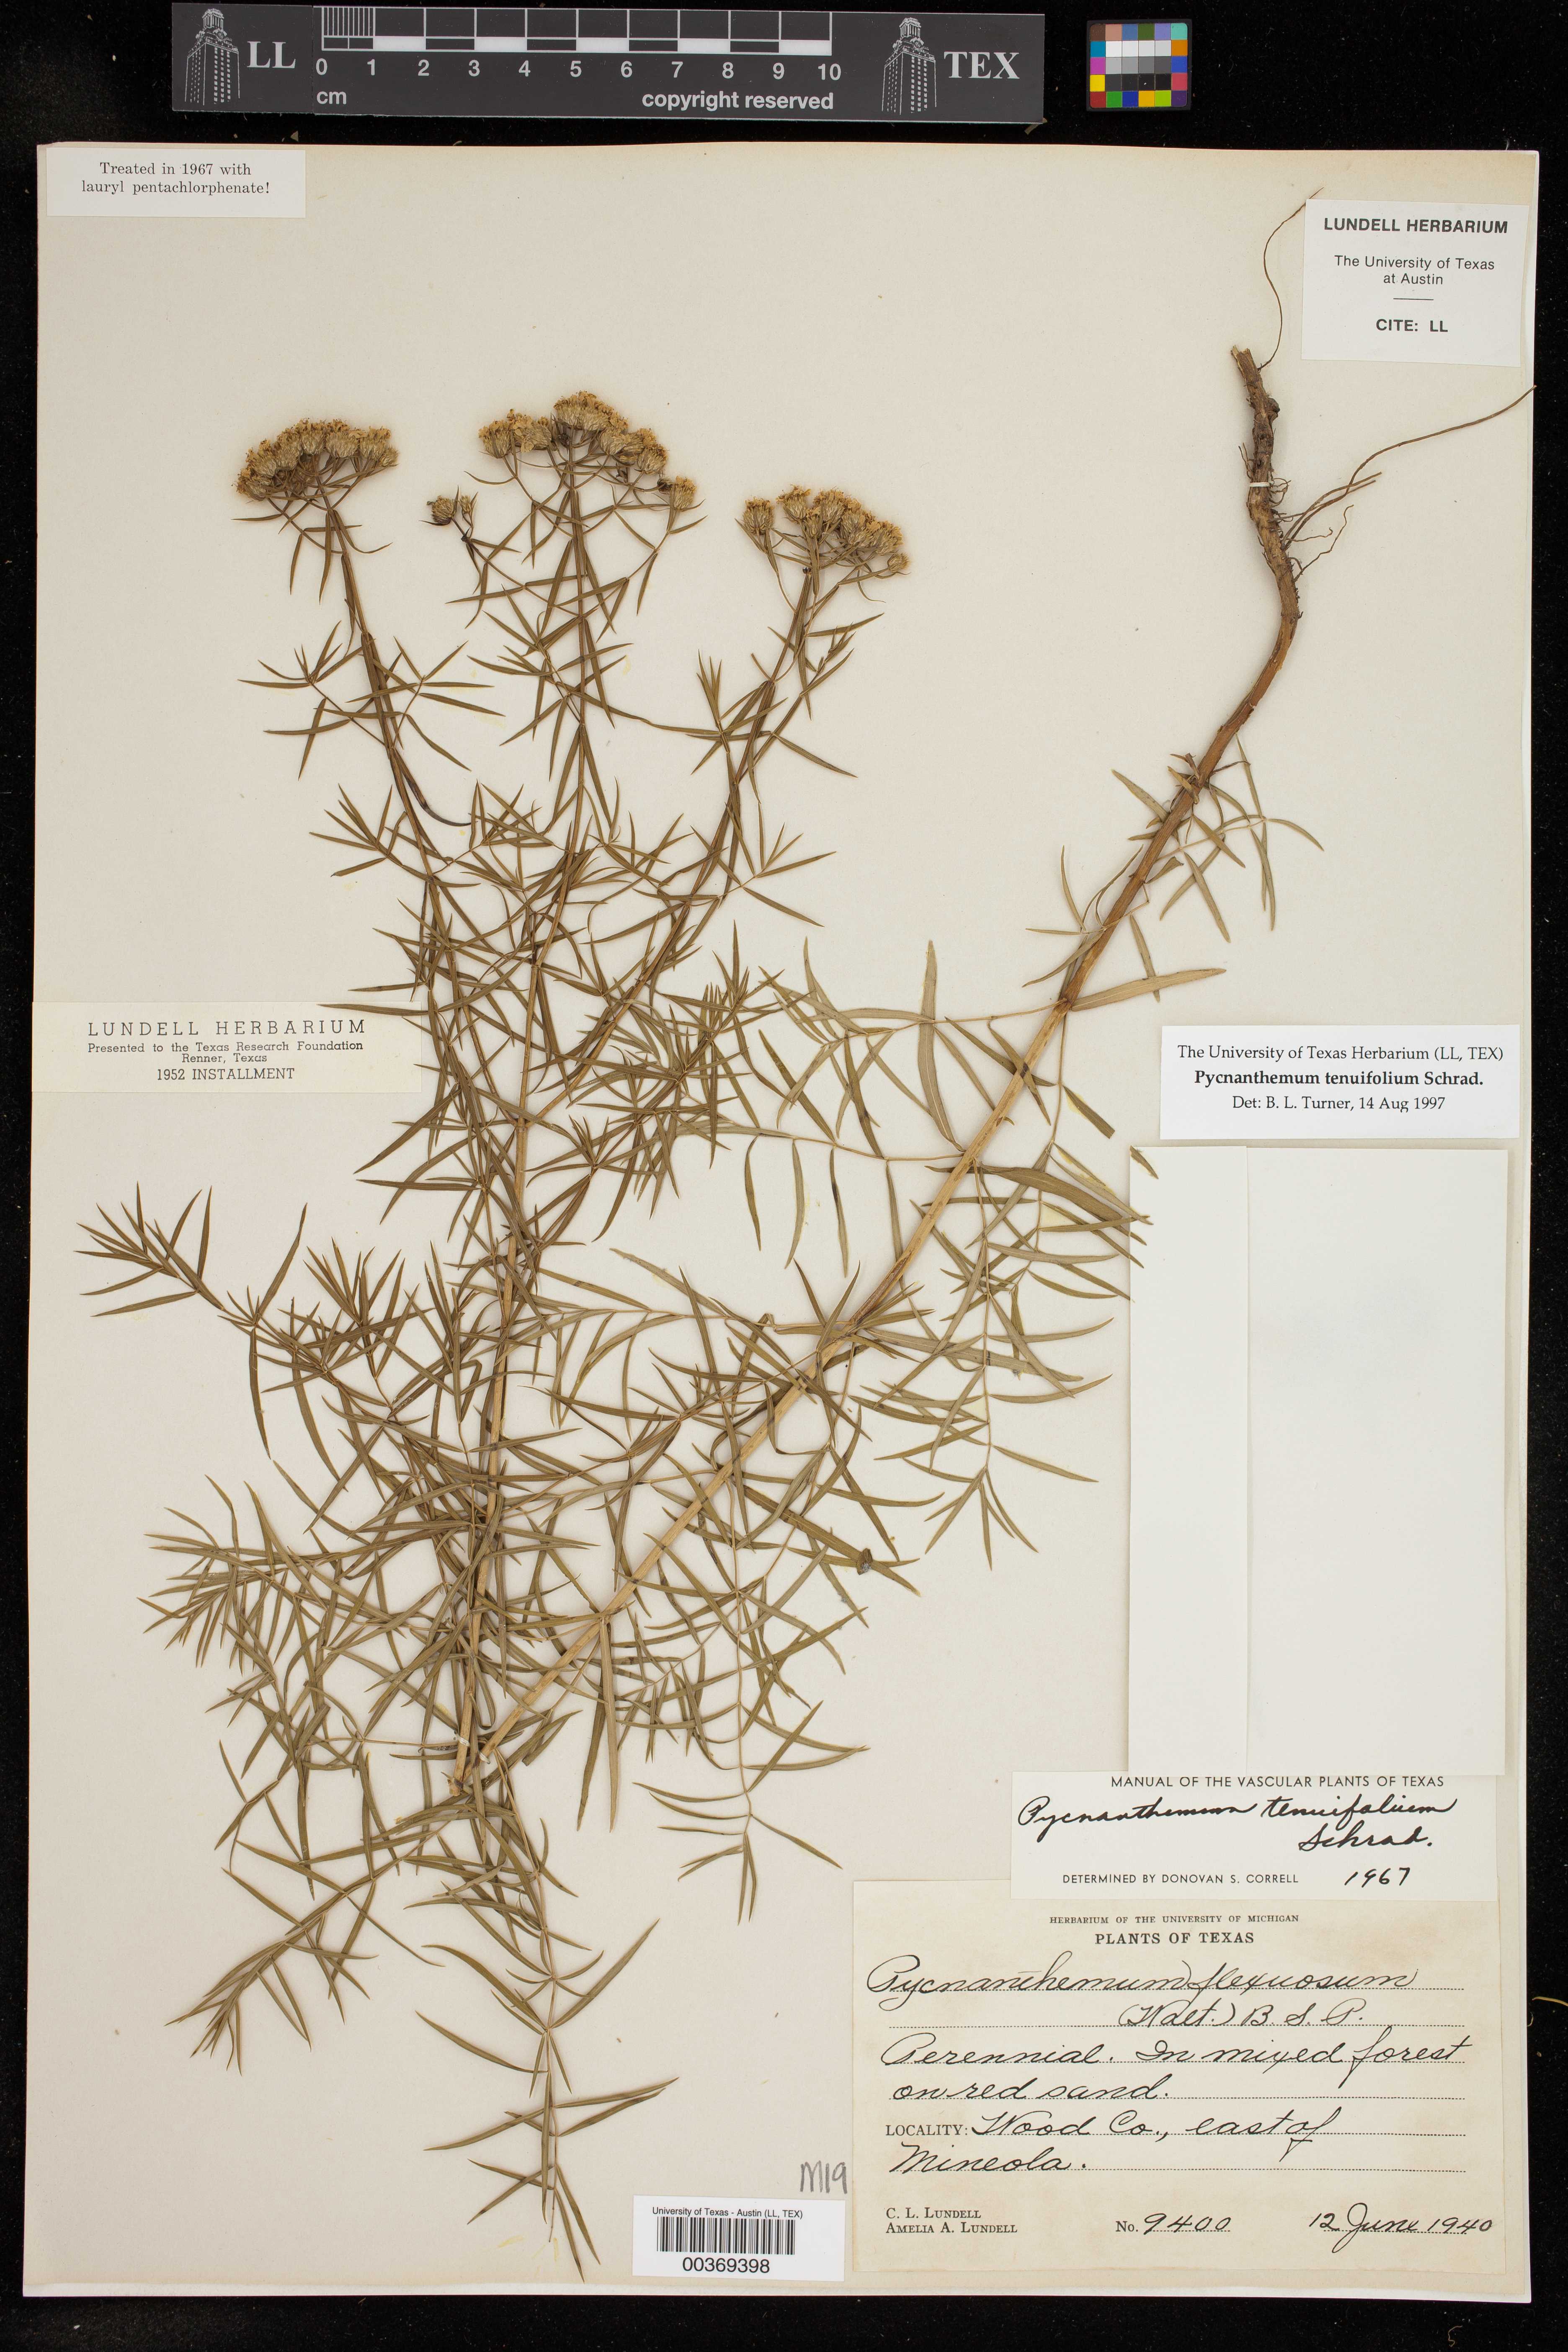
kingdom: Plantae
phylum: Tracheophyta
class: Magnoliopsida
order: Lamiales
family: Lamiaceae
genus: Pycnanthemum
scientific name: Pycnanthemum tenuifolium
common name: Narrow-leaf mountain-mint
